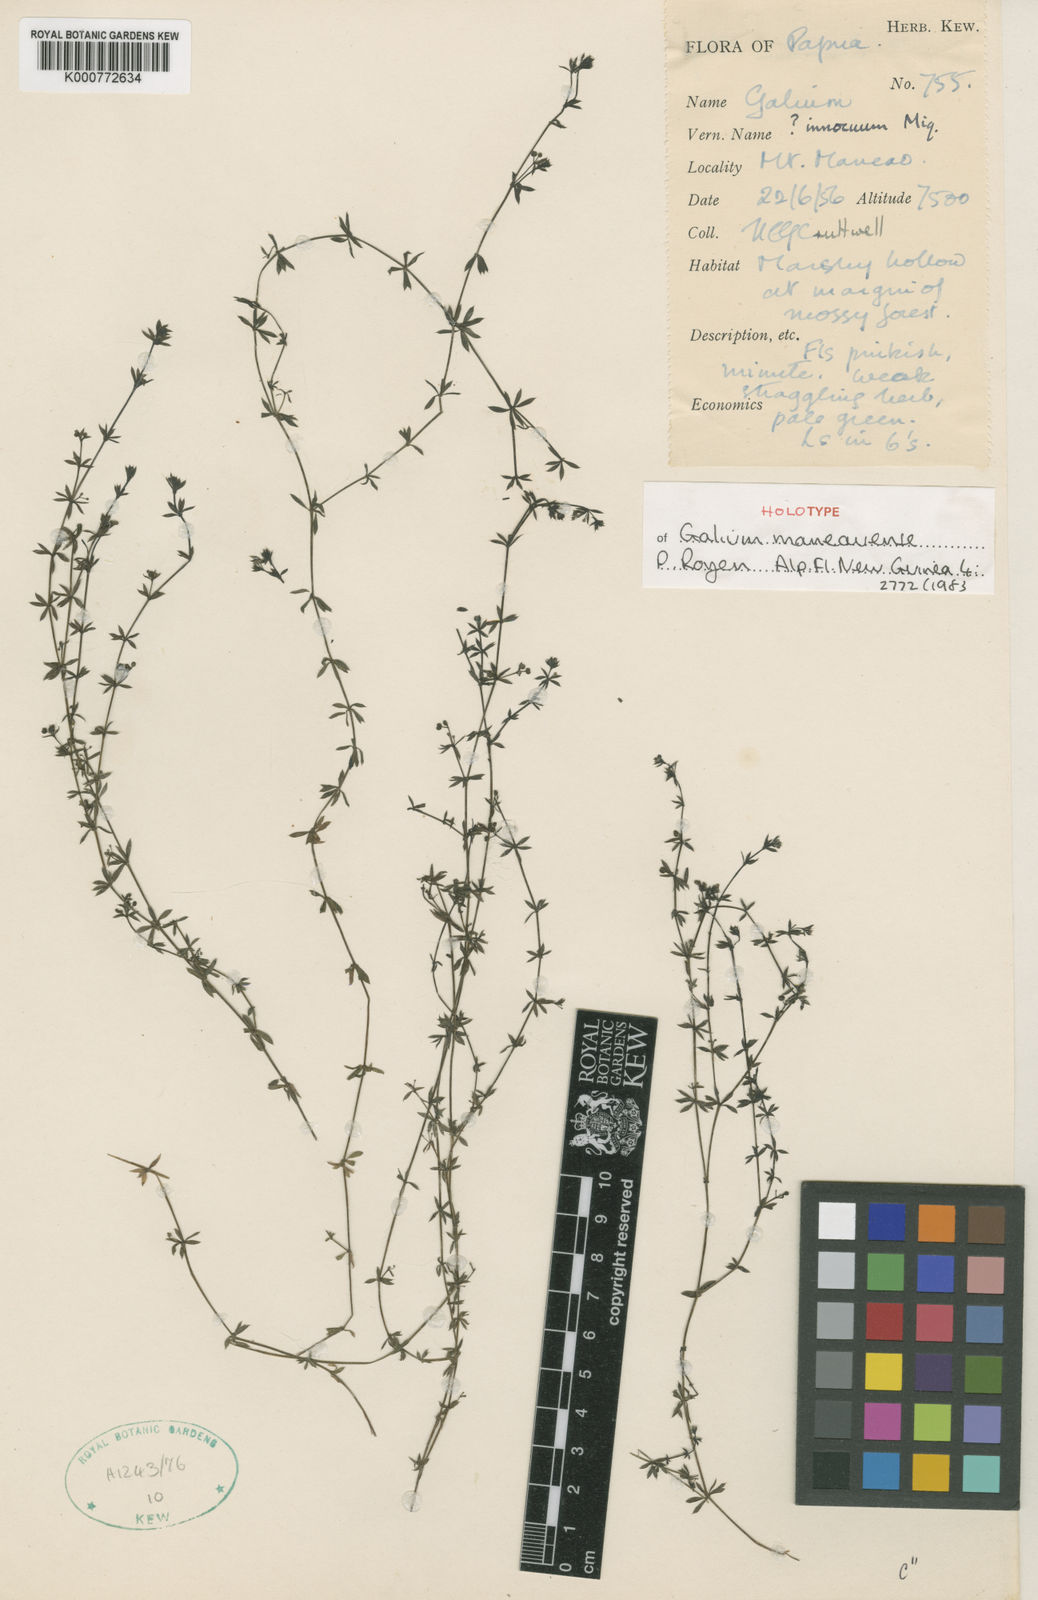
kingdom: Plantae
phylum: Tracheophyta
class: Magnoliopsida
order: Gentianales
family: Rubiaceae
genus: Galium
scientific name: Galium maneauense
